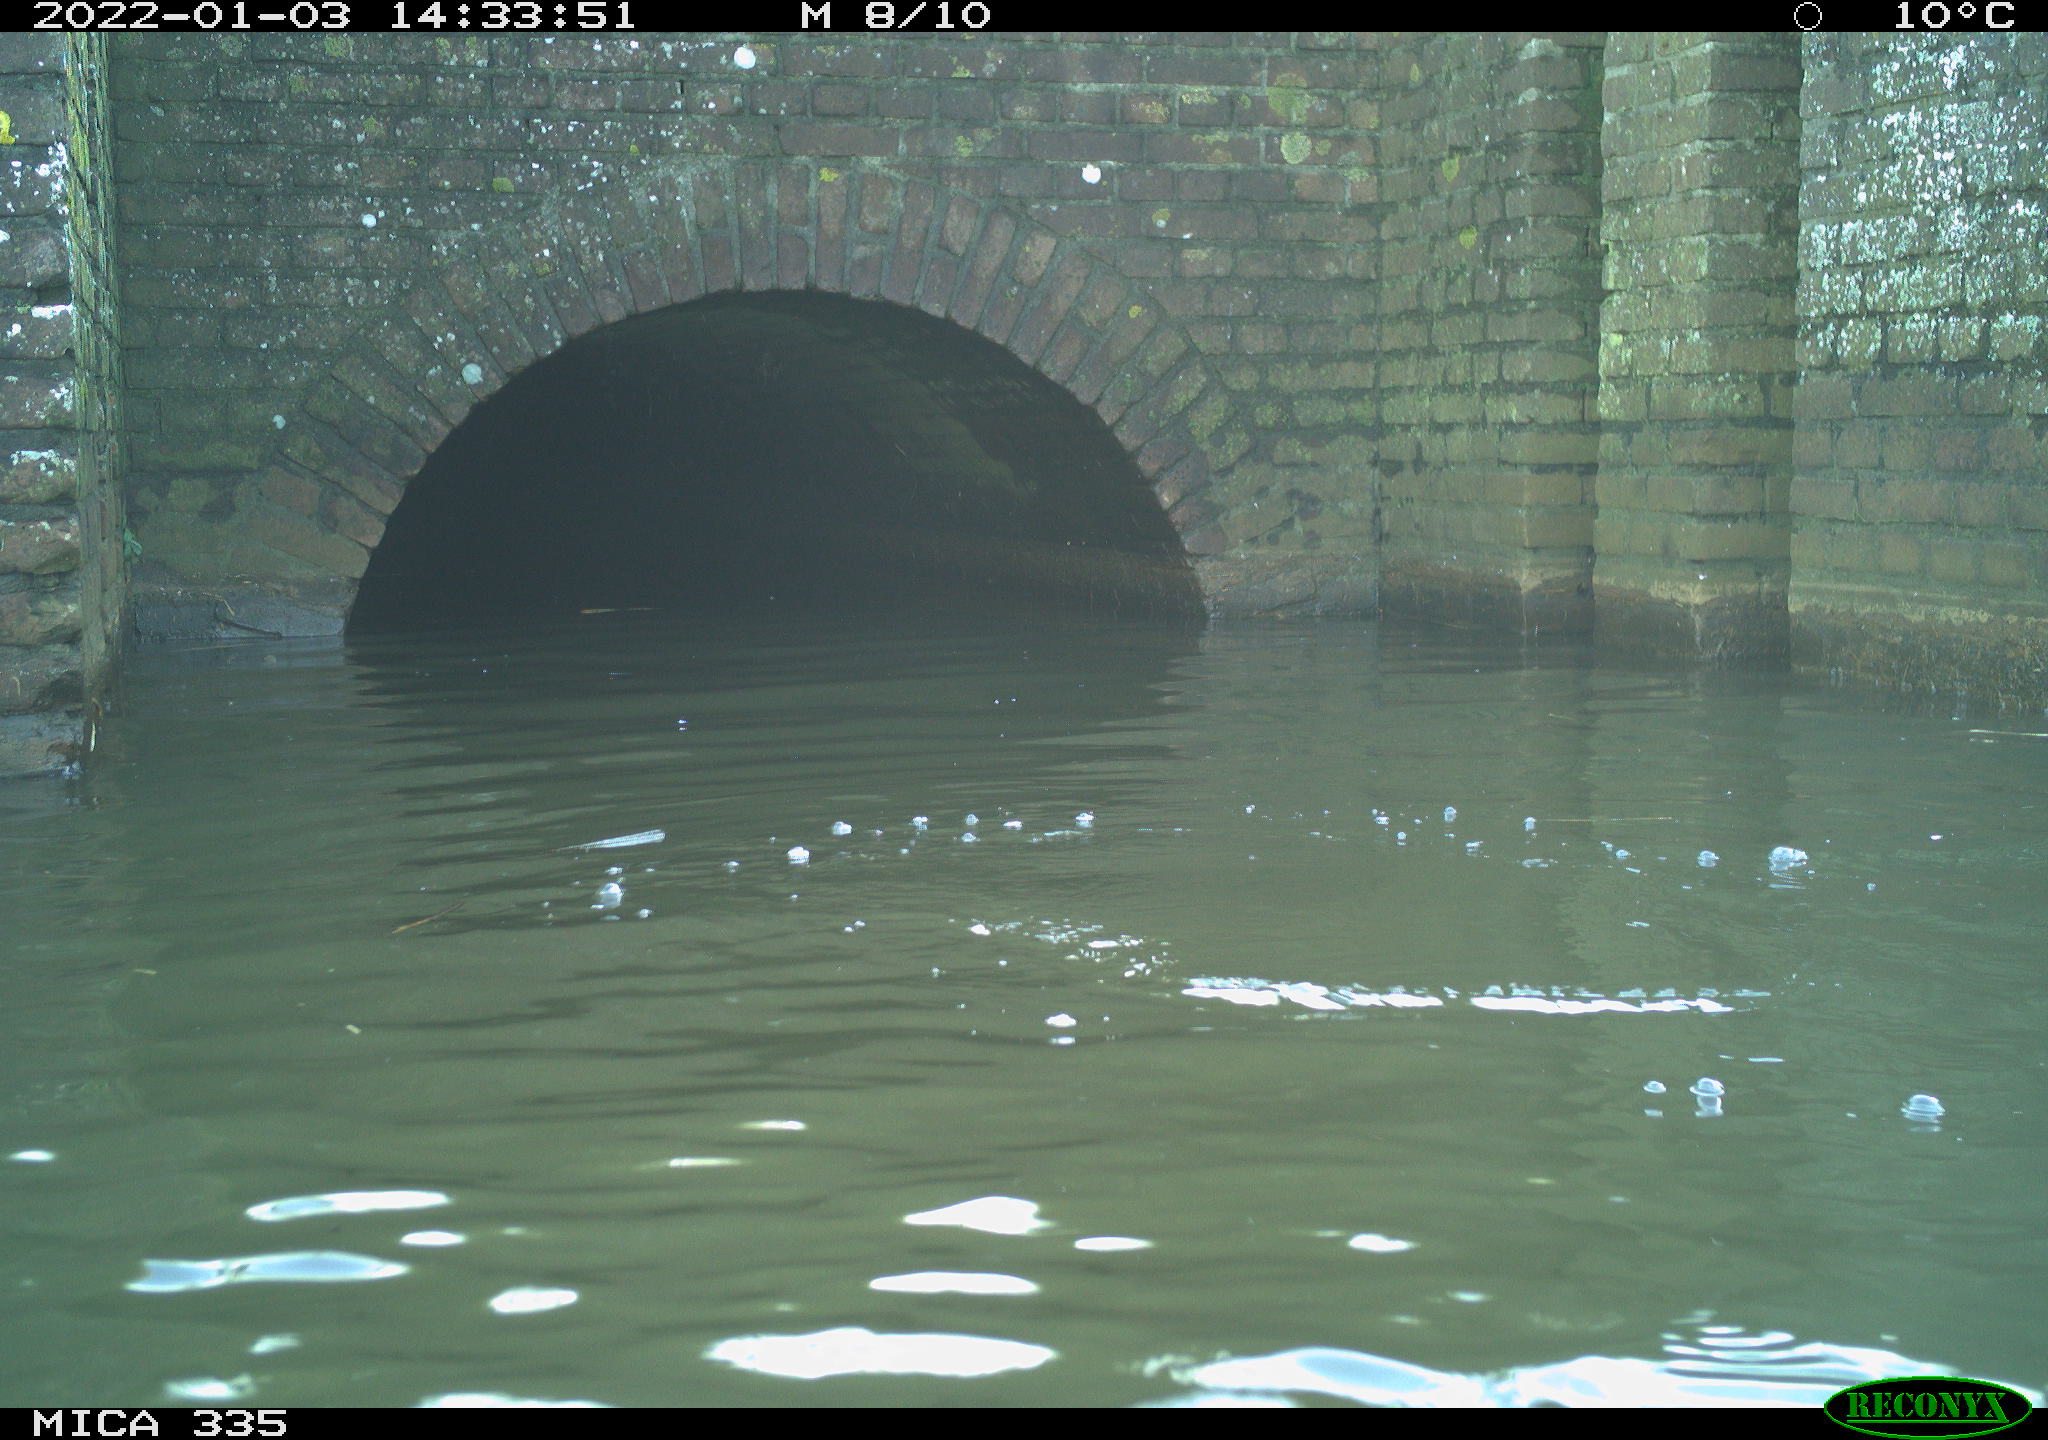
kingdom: Animalia
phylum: Chordata
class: Aves
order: Suliformes
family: Phalacrocoracidae
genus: Phalacrocorax
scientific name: Phalacrocorax carbo
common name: Great cormorant
